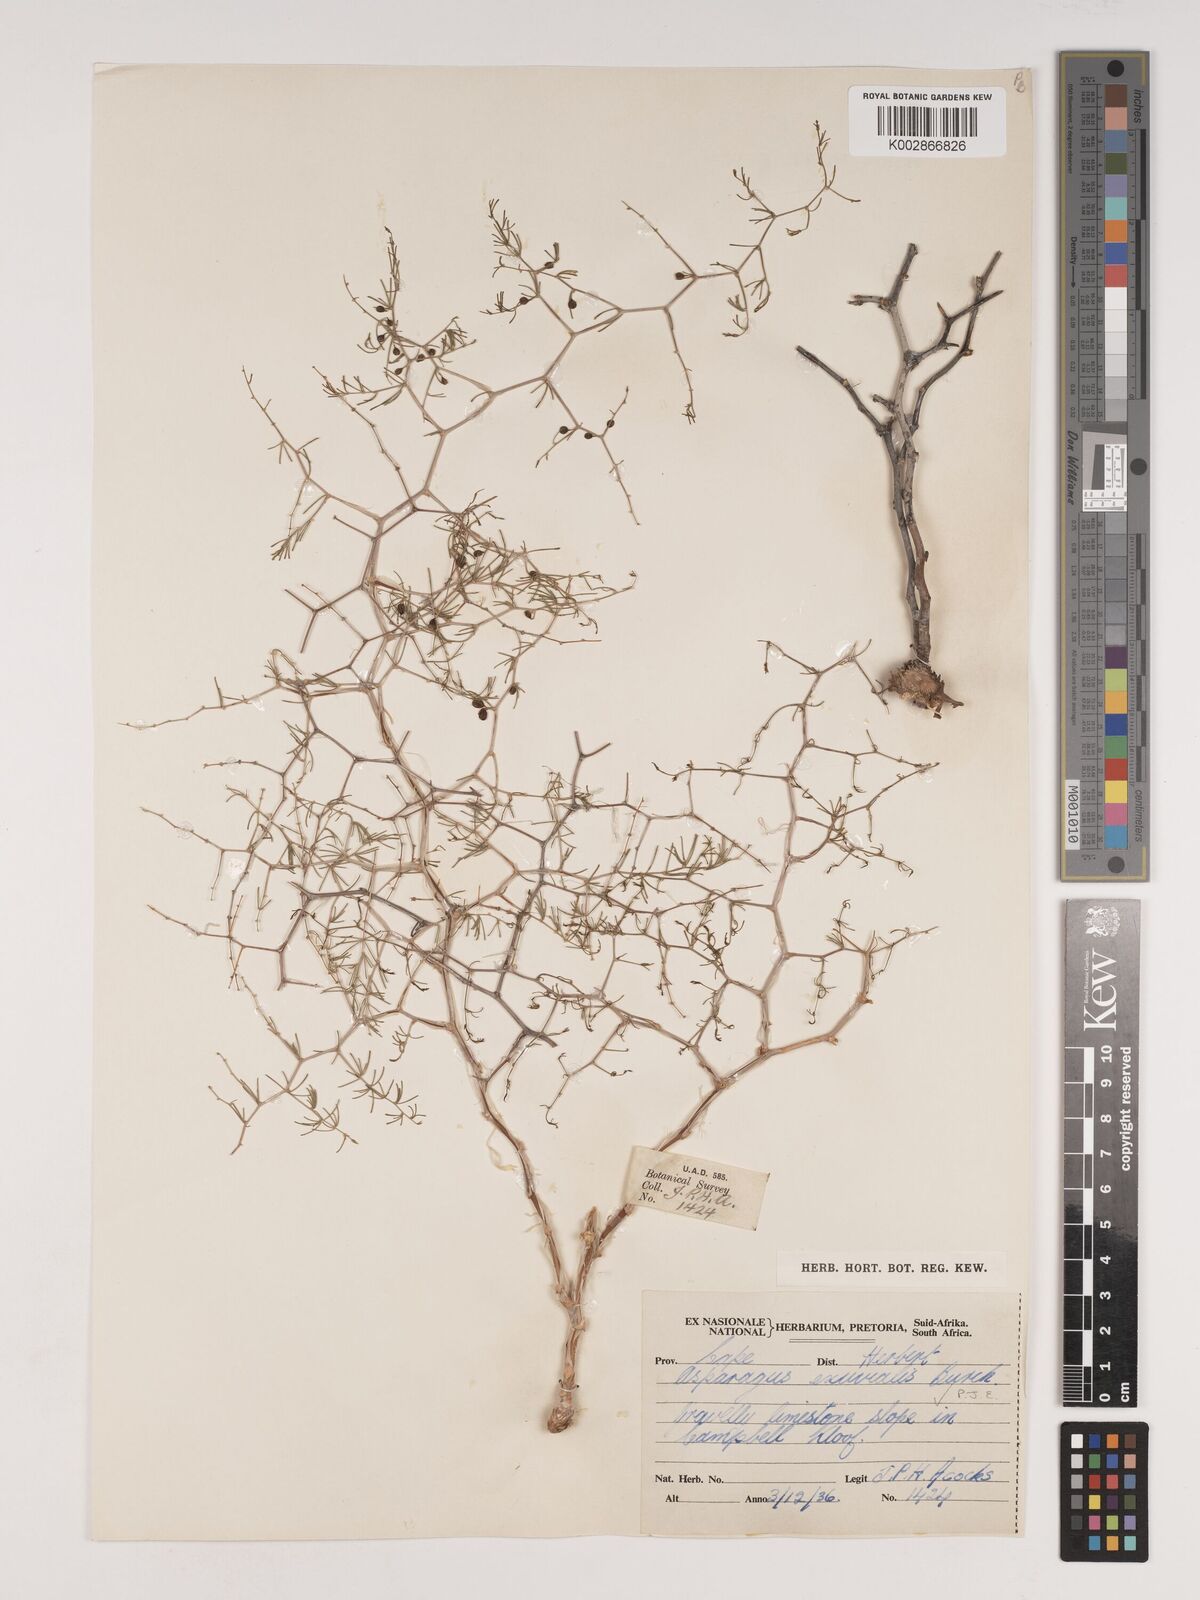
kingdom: Plantae
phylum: Tracheophyta
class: Liliopsida
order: Asparagales
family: Asparagaceae
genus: Asparagus
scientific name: Asparagus exuvialis
